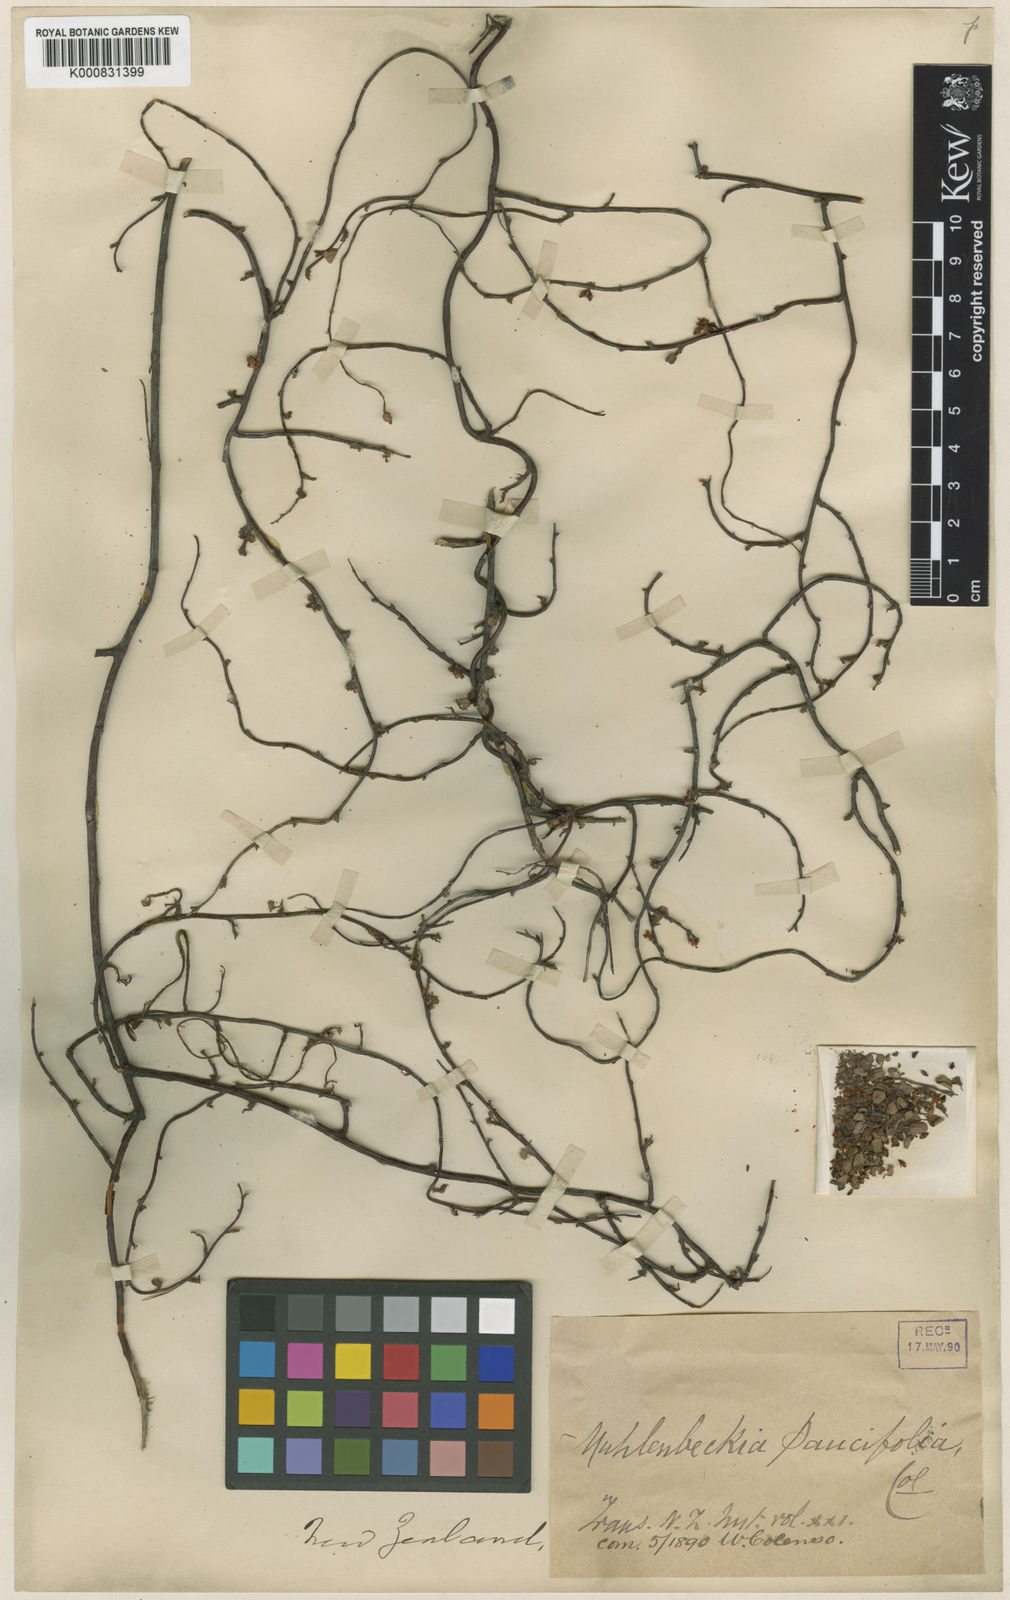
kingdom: Plantae
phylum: Tracheophyta
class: Magnoliopsida
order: Caryophyllales
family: Polygonaceae
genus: Muehlenbeckia
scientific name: Muehlenbeckia complexa
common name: Wireplant
